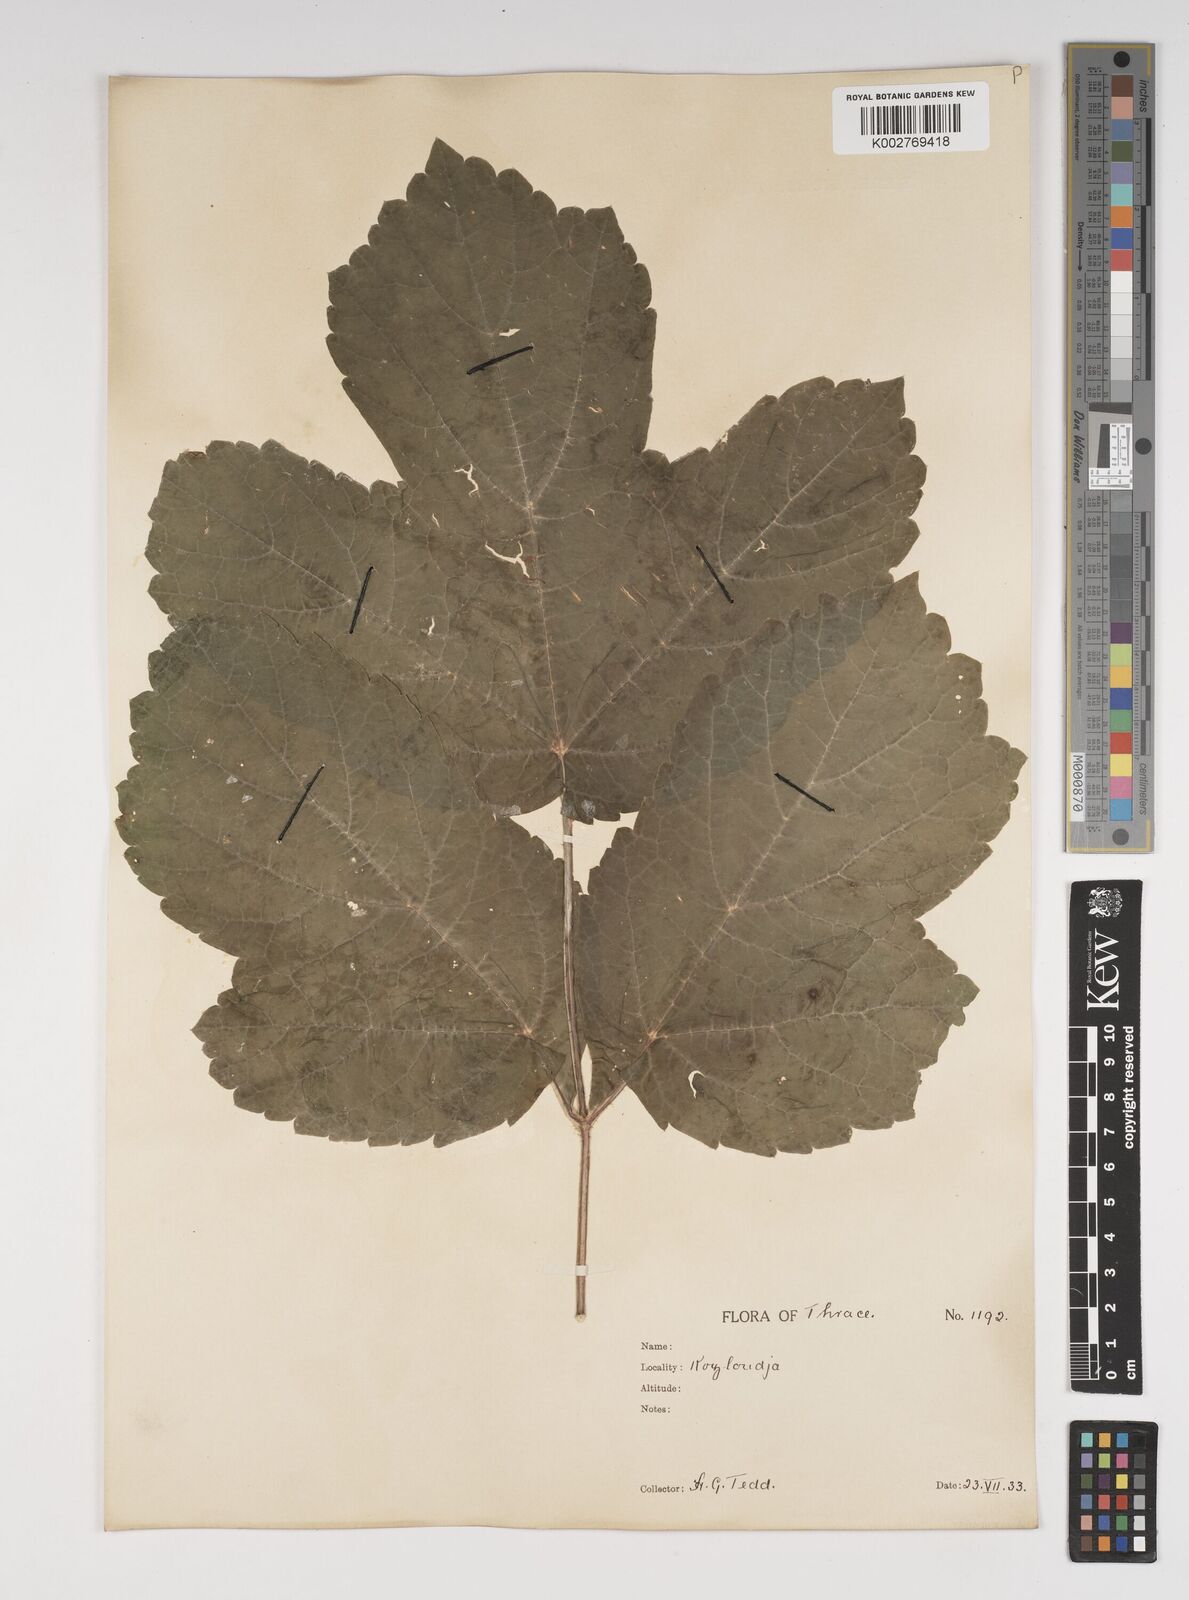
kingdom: Plantae
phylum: Tracheophyta
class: Magnoliopsida
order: Apiales
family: Apiaceae
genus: Heracleum
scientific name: Heracleum sphondylium
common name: Hogweed
